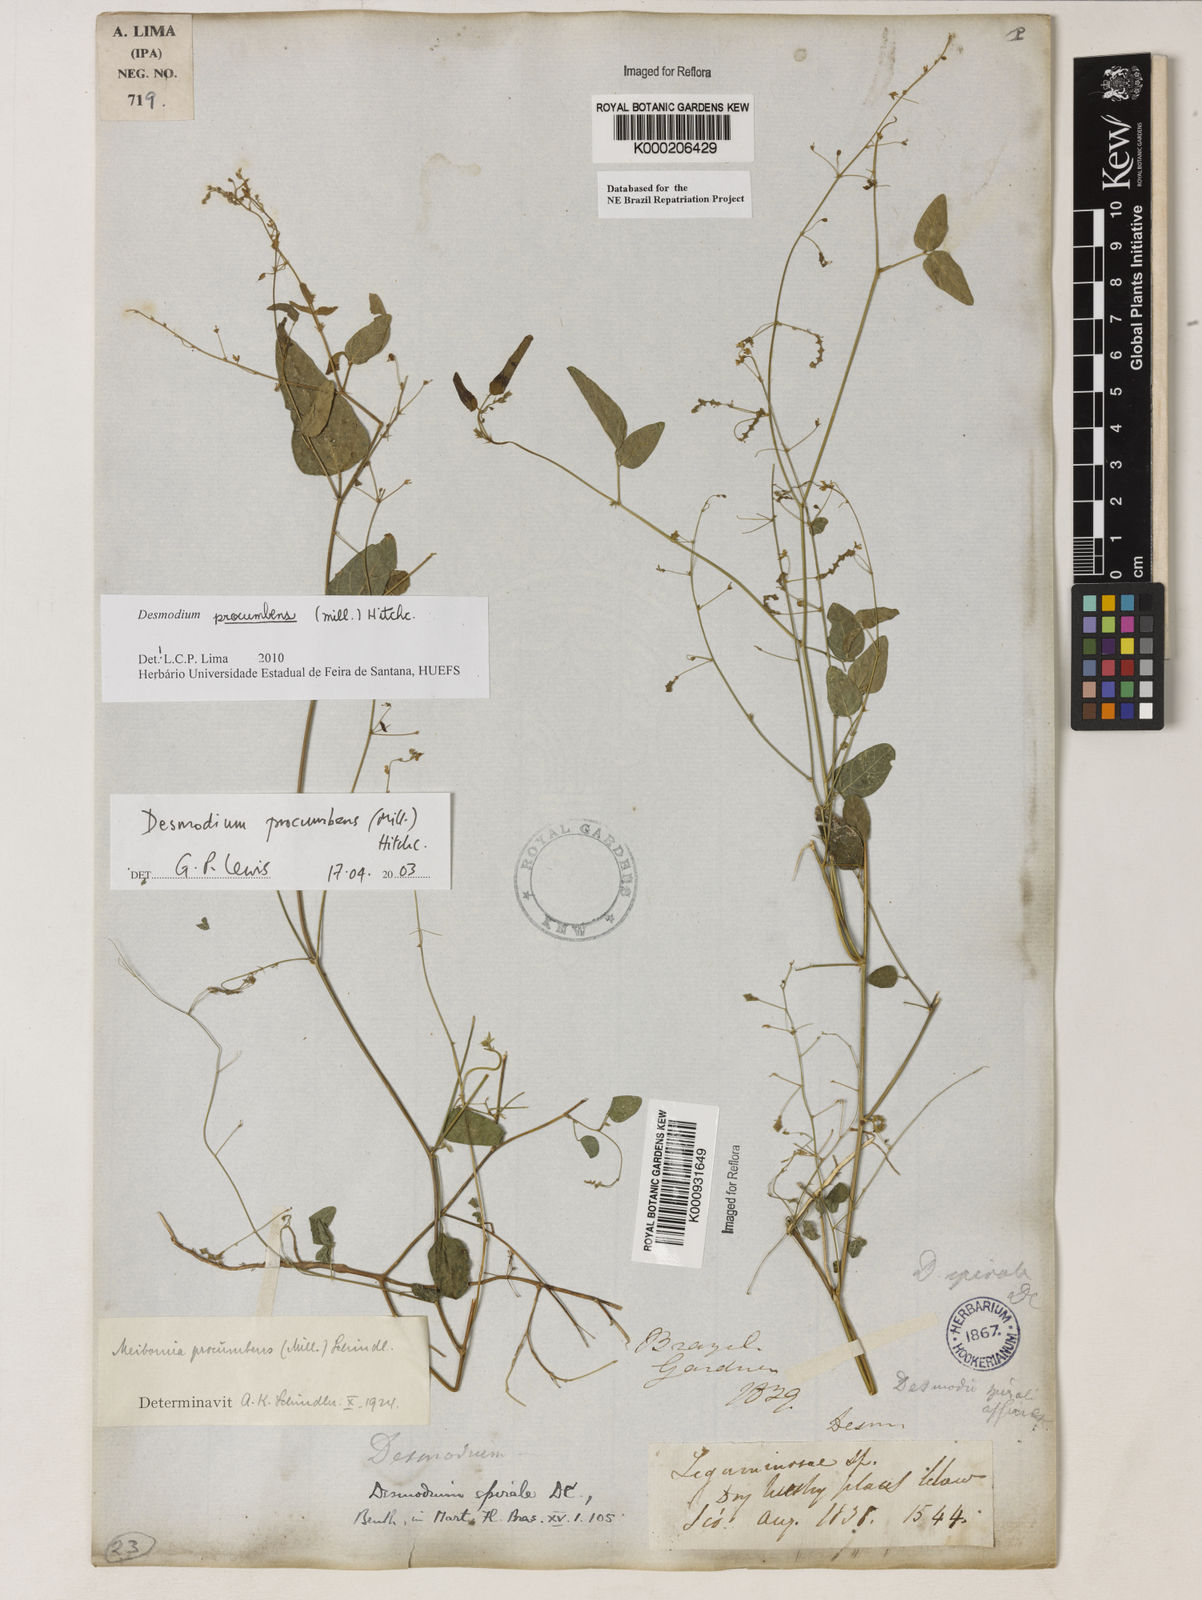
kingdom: Plantae
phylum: Tracheophyta
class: Magnoliopsida
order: Fabales
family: Fabaceae
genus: Desmodium
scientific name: Desmodium
